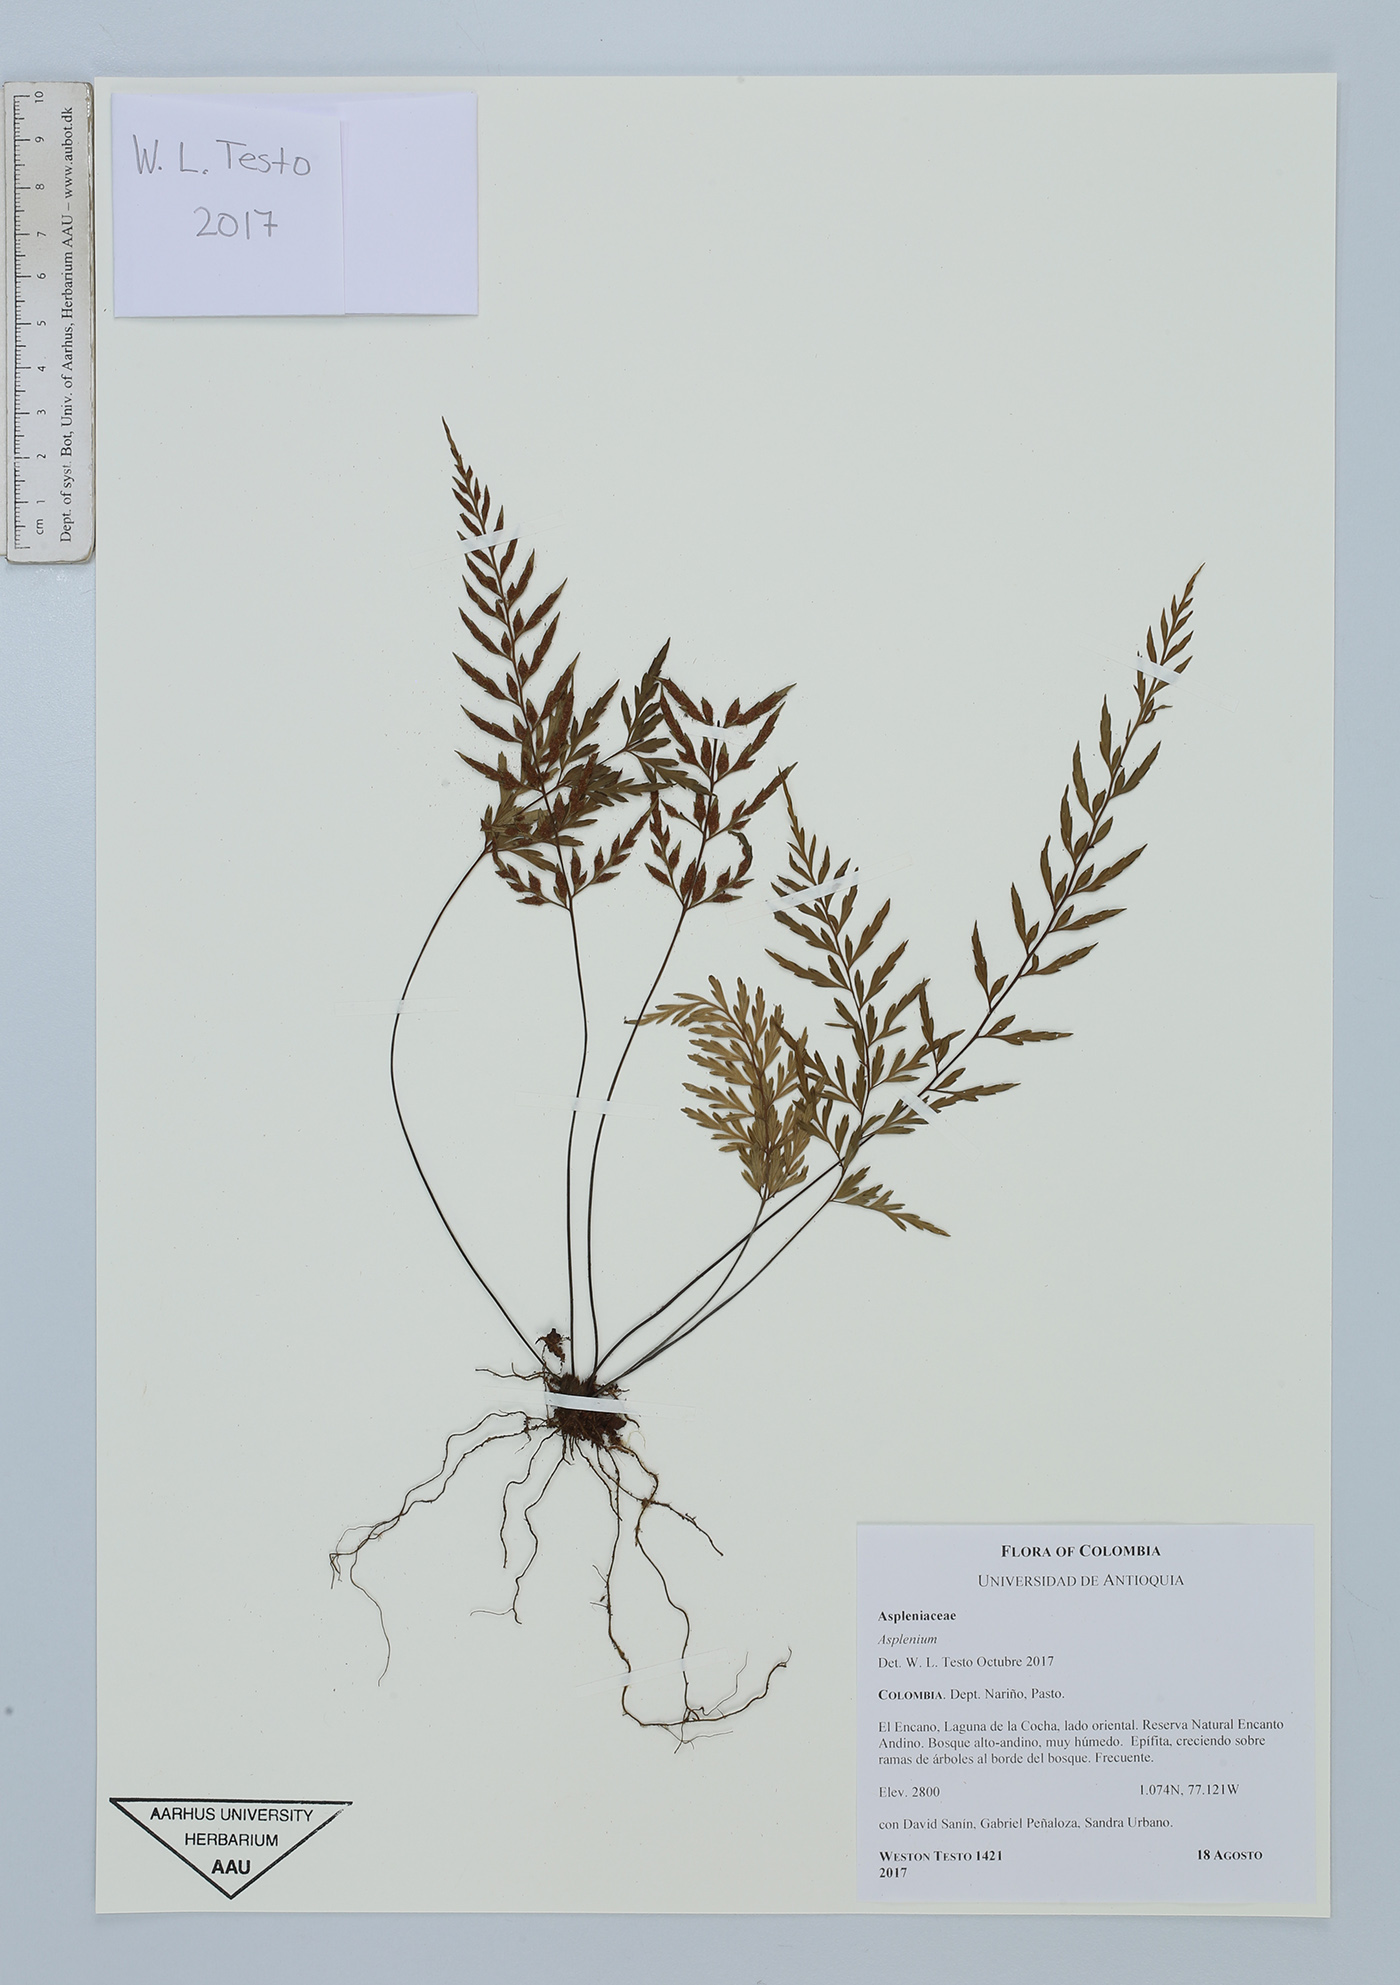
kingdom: Plantae
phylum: Tracheophyta
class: Polypodiopsida
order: Polypodiales
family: Aspleniaceae
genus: Asplenium
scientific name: Asplenium
